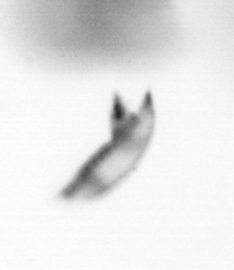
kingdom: Animalia
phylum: Arthropoda
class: Copepoda
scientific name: Copepoda
